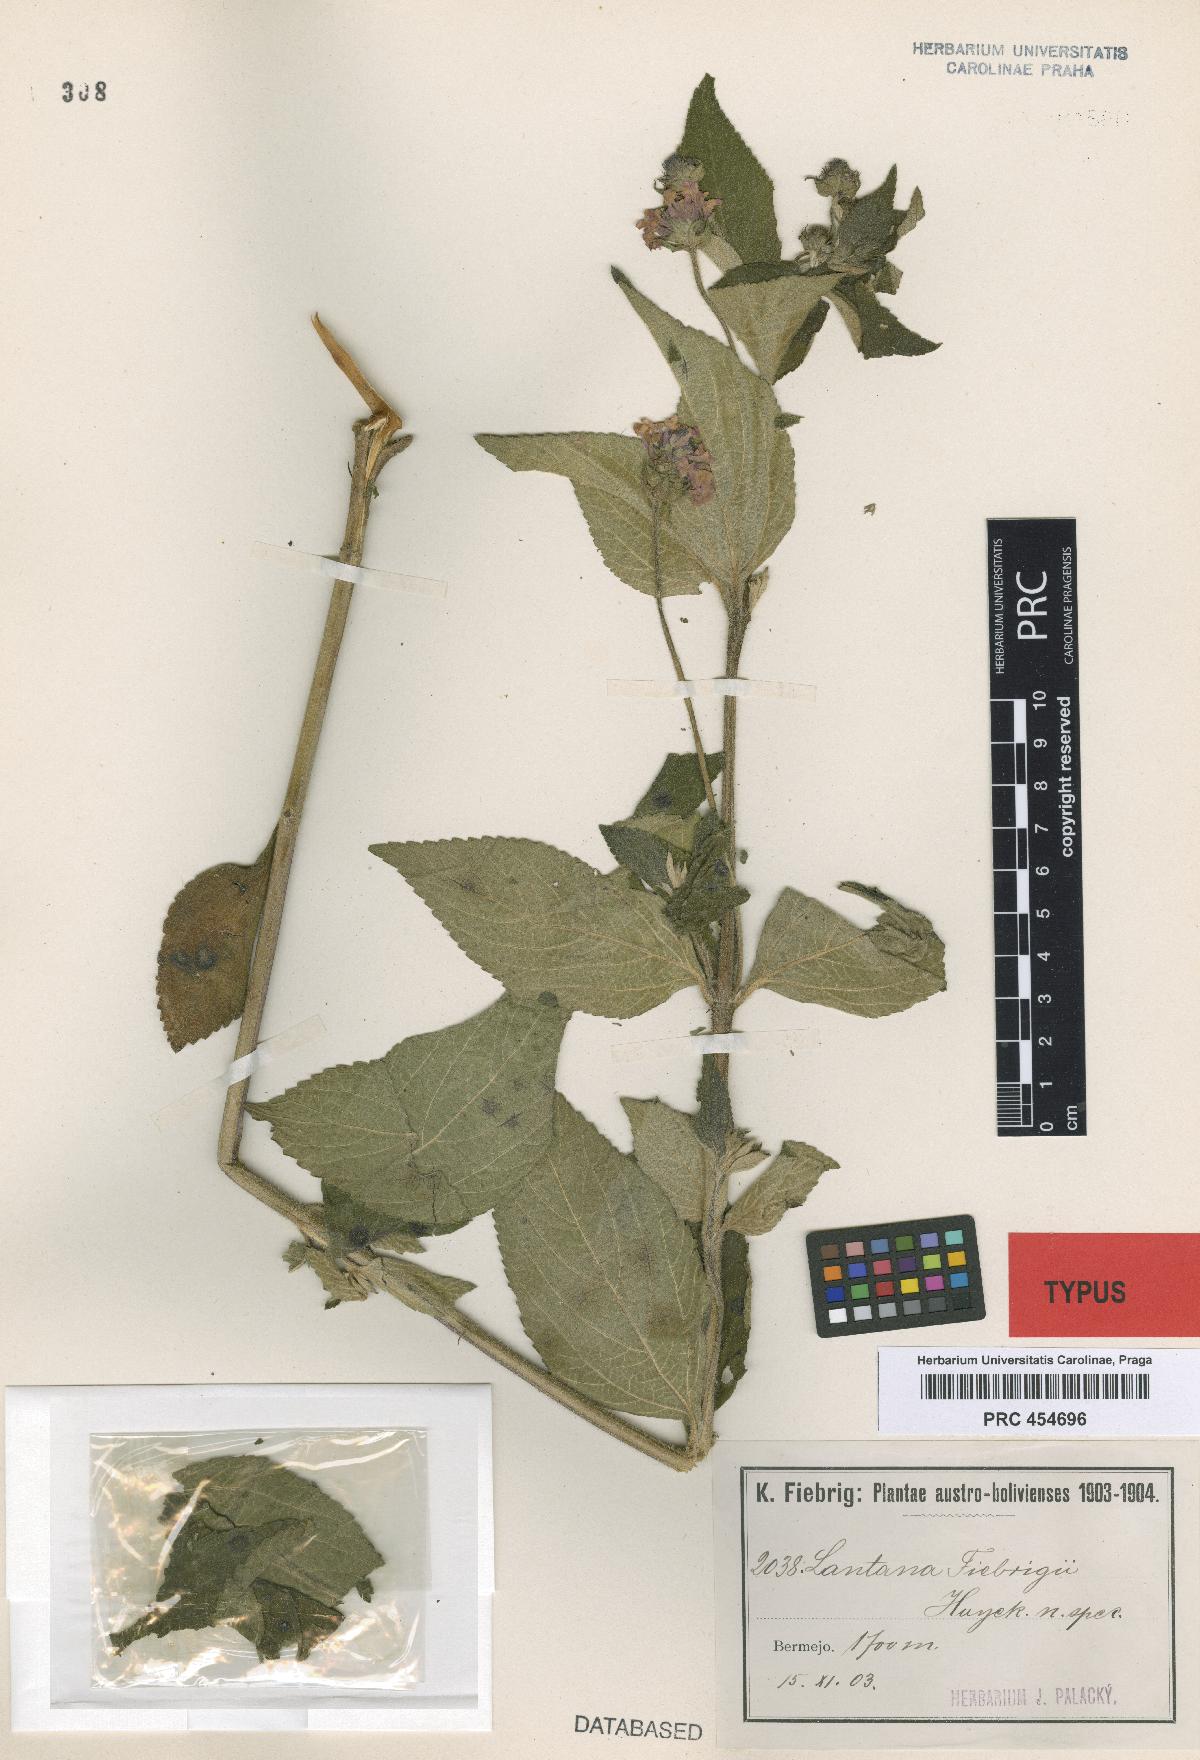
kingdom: Plantae
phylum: Tracheophyta
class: Magnoliopsida
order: Lamiales
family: Verbenaceae
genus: Lantana
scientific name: Lantana trifolia
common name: Sweet-sage
